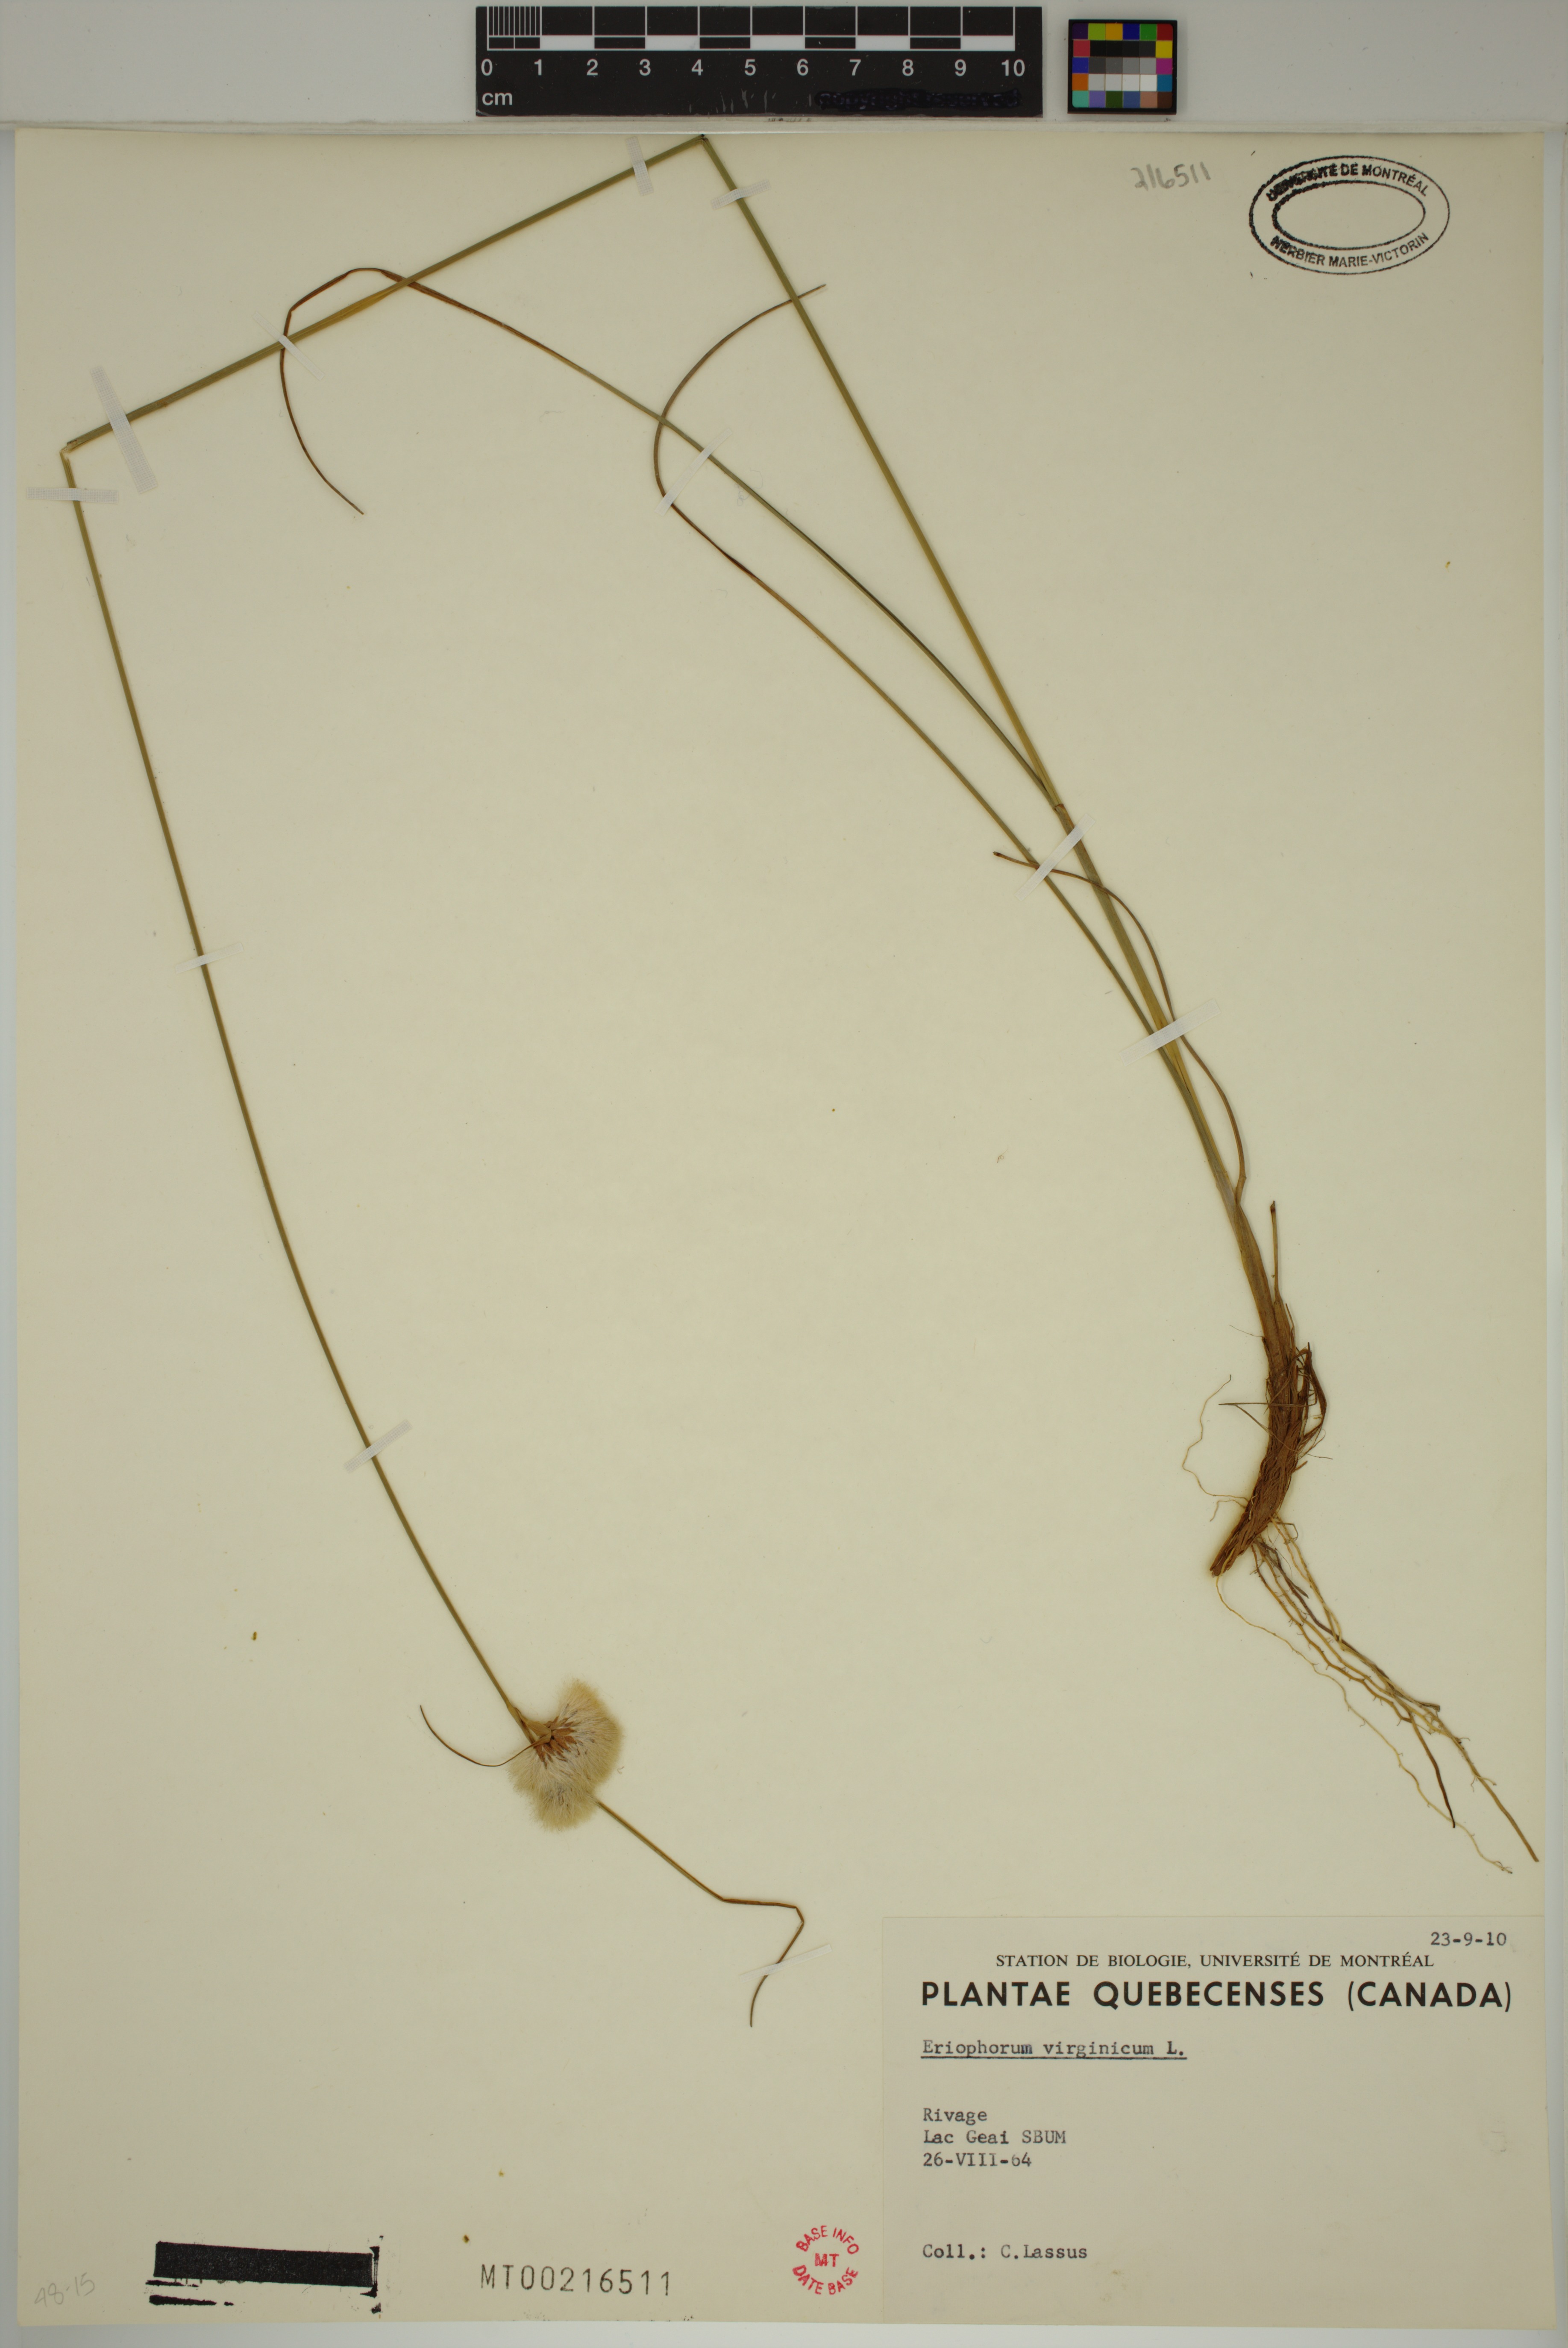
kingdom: Plantae
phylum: Tracheophyta
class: Liliopsida
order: Poales
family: Cyperaceae
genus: Eriophorum
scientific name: Eriophorum virginicum
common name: Tawny cottongrass
